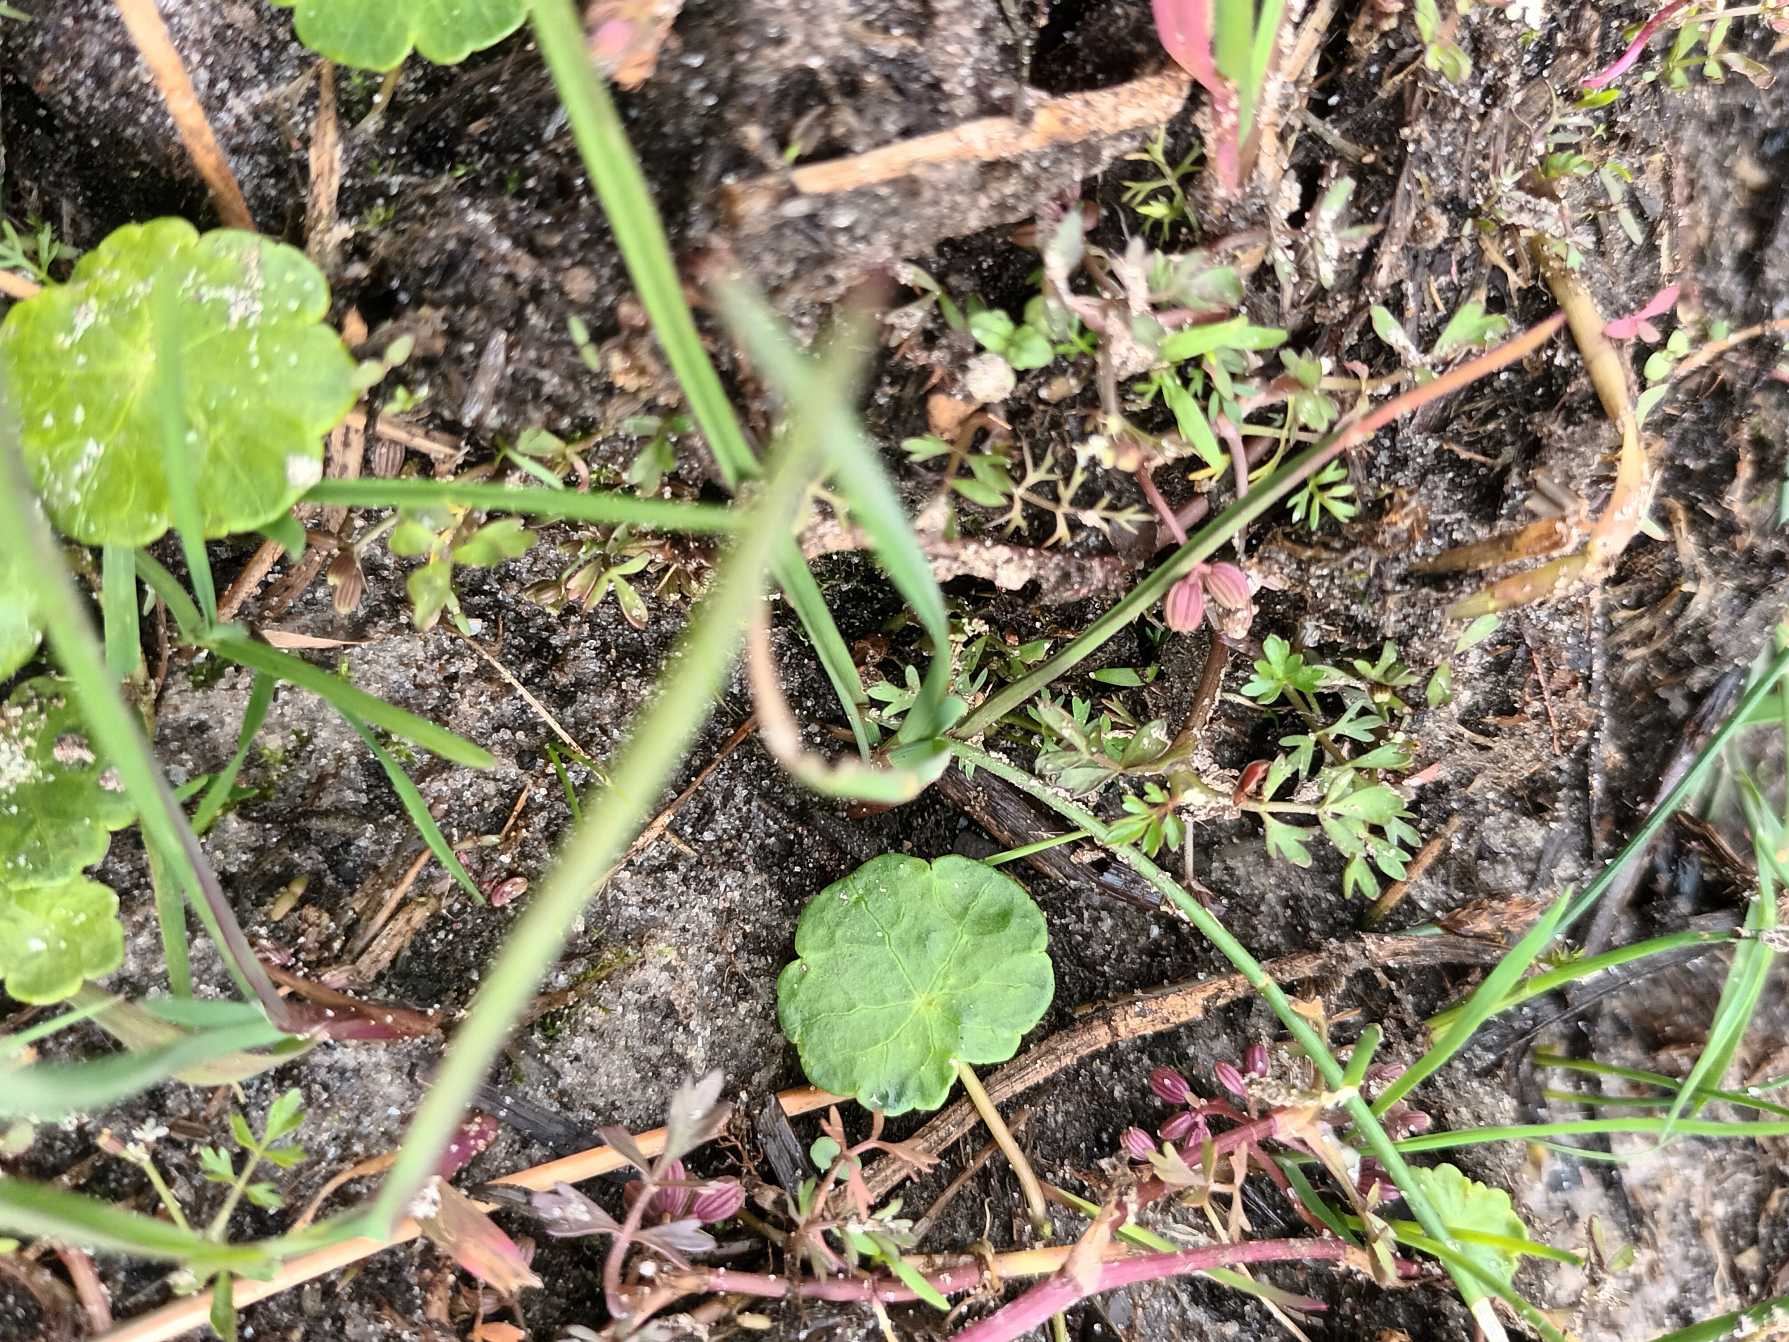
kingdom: Plantae
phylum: Tracheophyta
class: Magnoliopsida
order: Apiales
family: Apiaceae
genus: Helosciadium
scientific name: Helosciadium inundatum
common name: Svømmende sumpskærm
